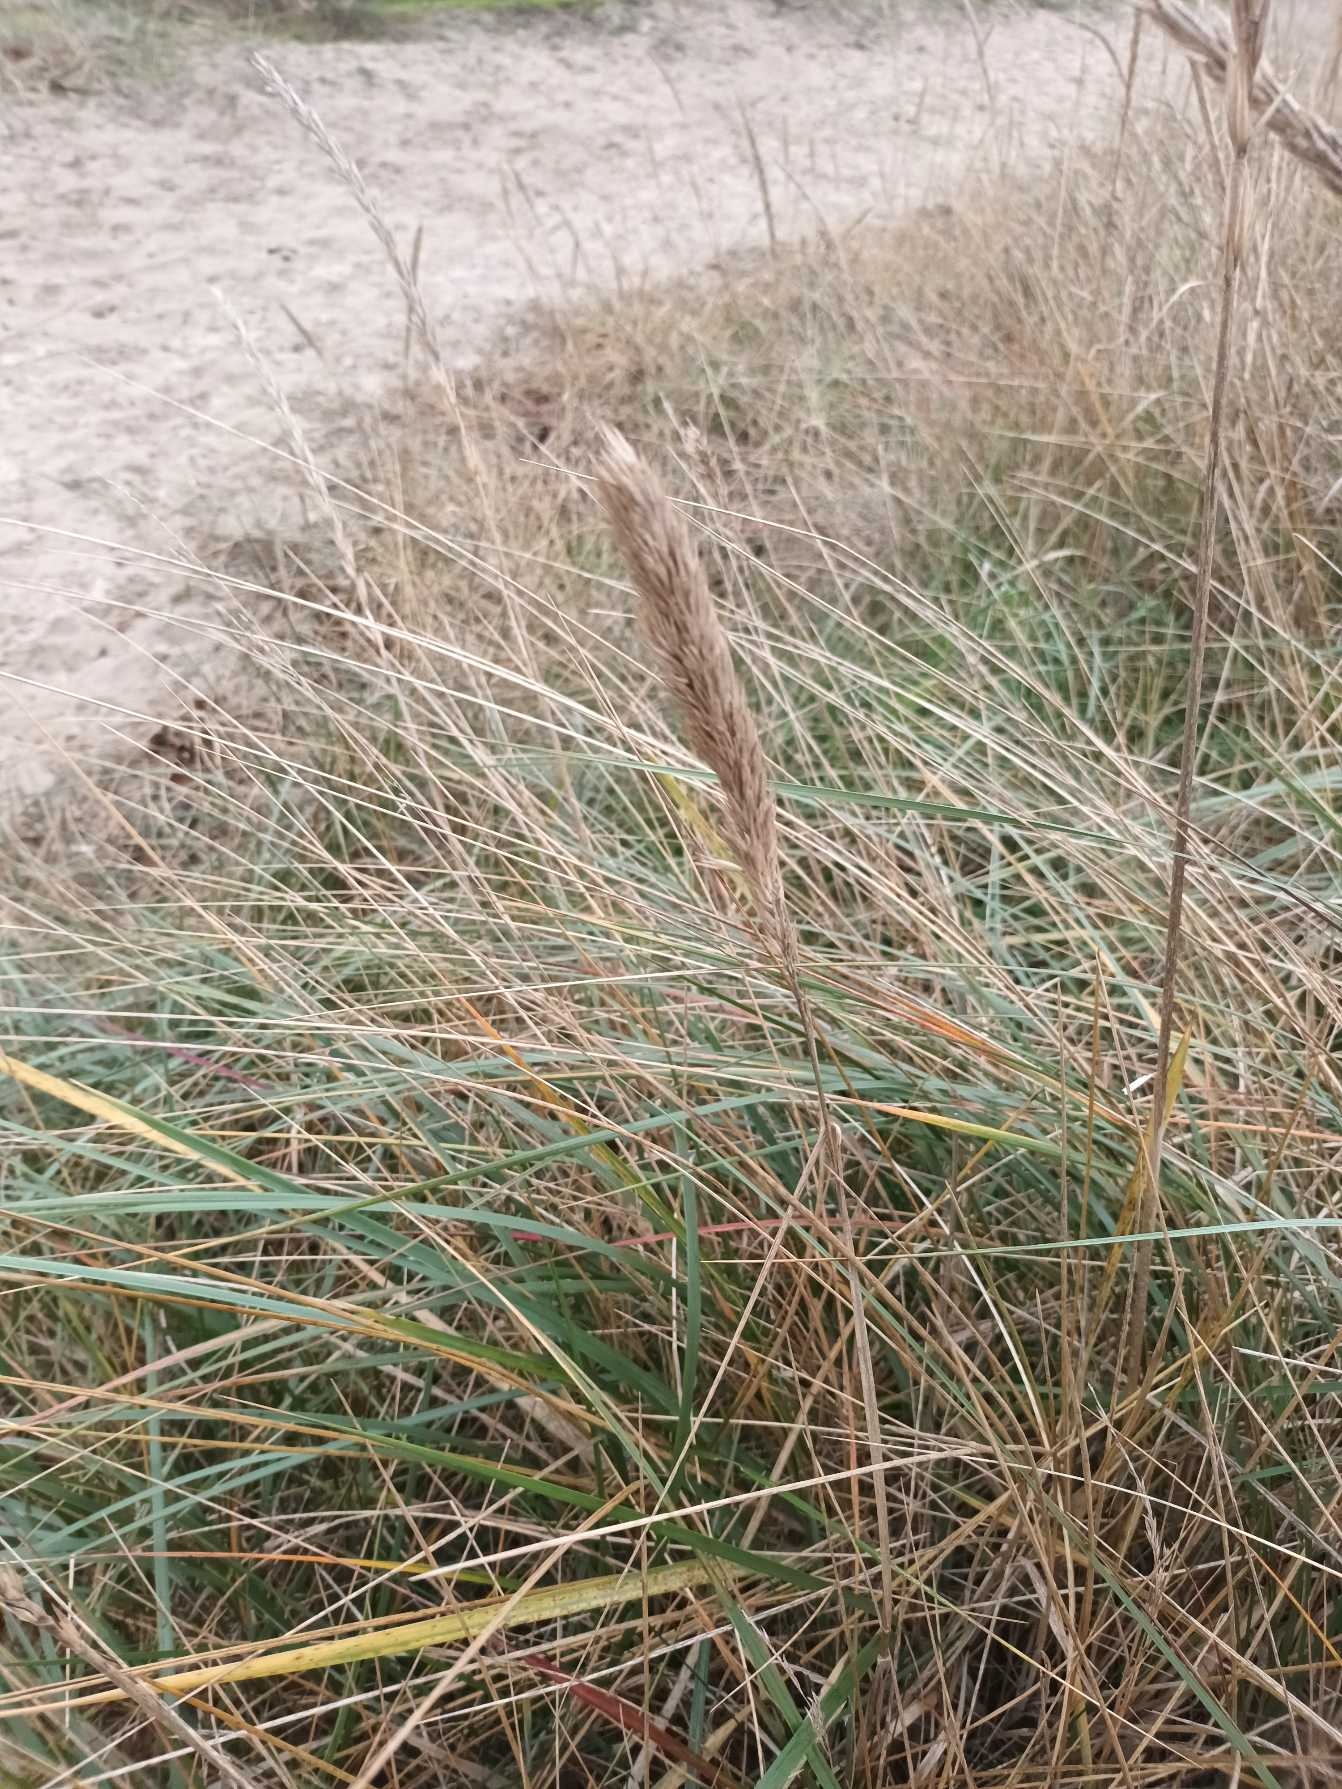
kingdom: Plantae
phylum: Tracheophyta
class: Liliopsida
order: Poales
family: Poaceae
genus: Calamagrostis
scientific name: Calamagrostis arenaria
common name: Sand-hjælme
